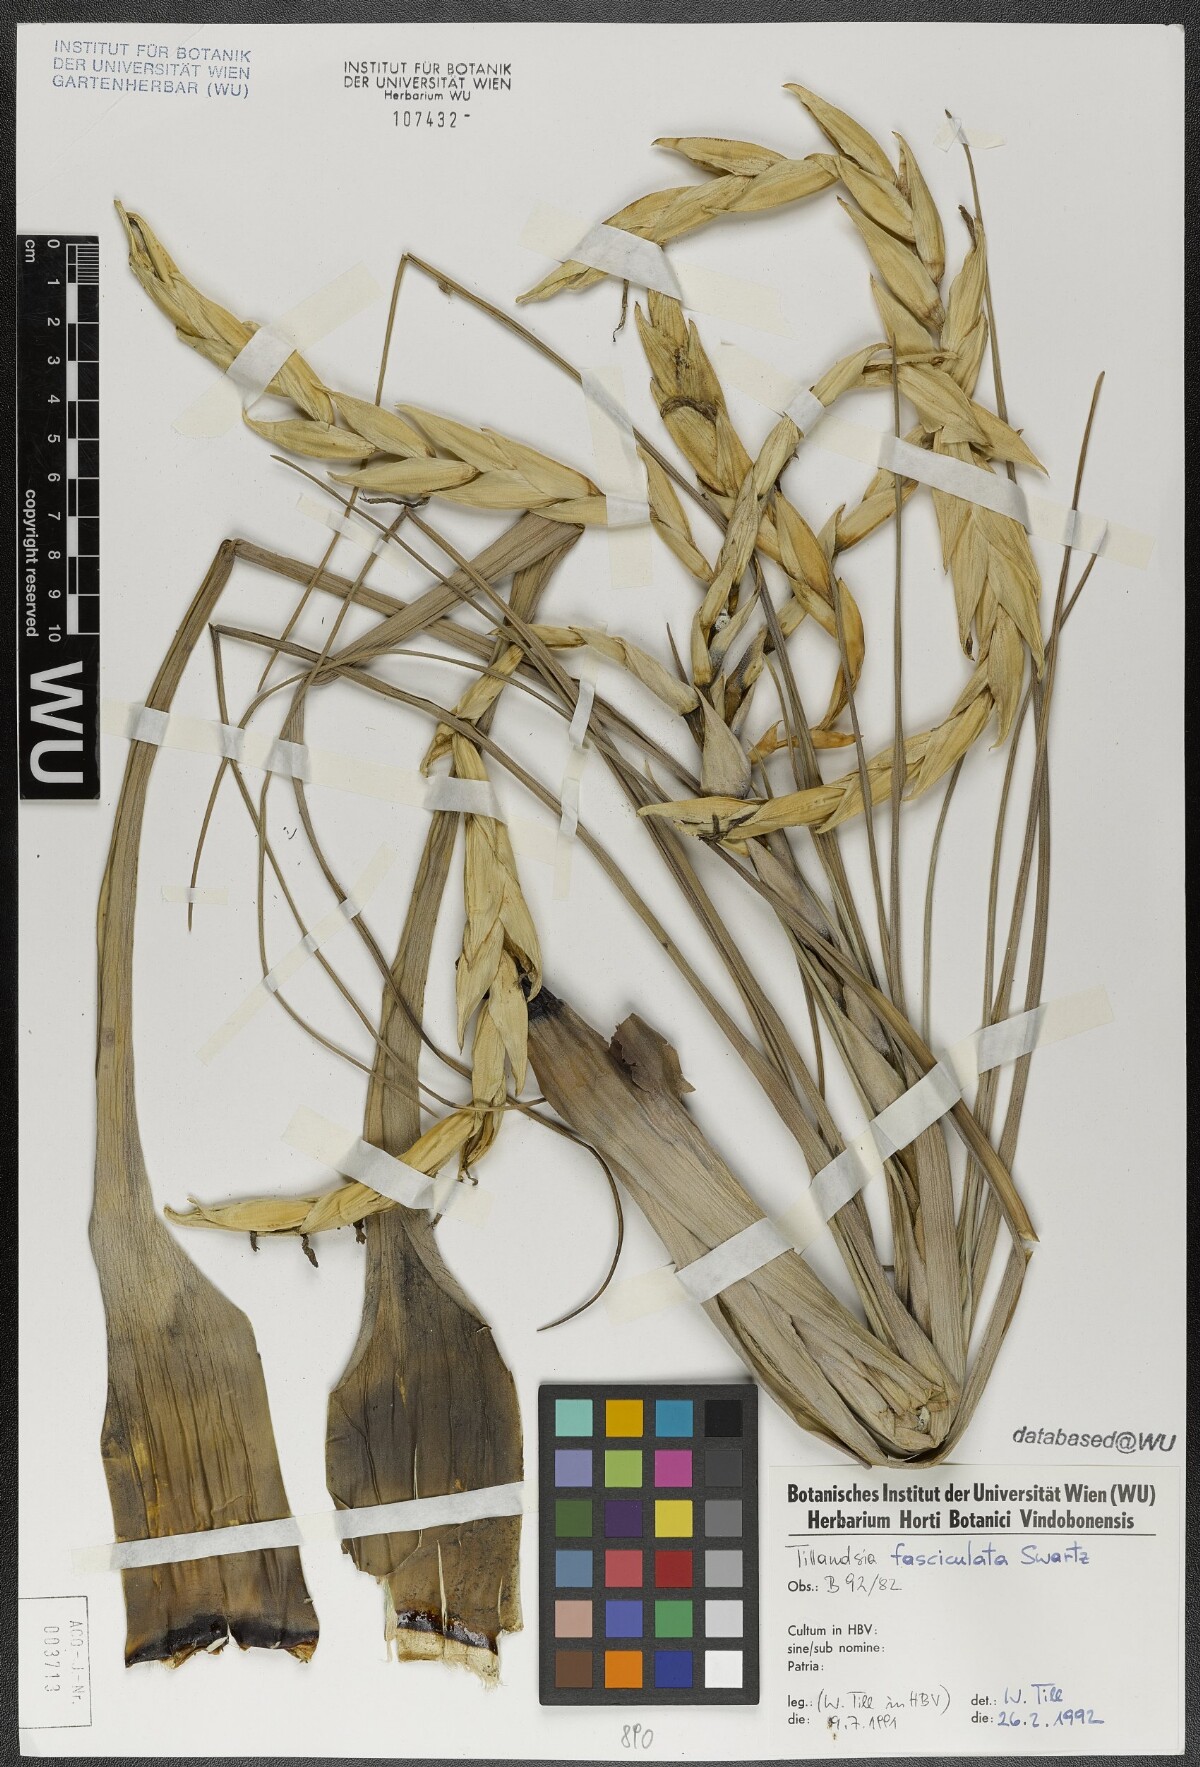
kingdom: Plantae
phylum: Tracheophyta
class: Liliopsida
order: Poales
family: Bromeliaceae
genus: Tillandsia
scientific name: Tillandsia fasciculata
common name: Giant airplant
